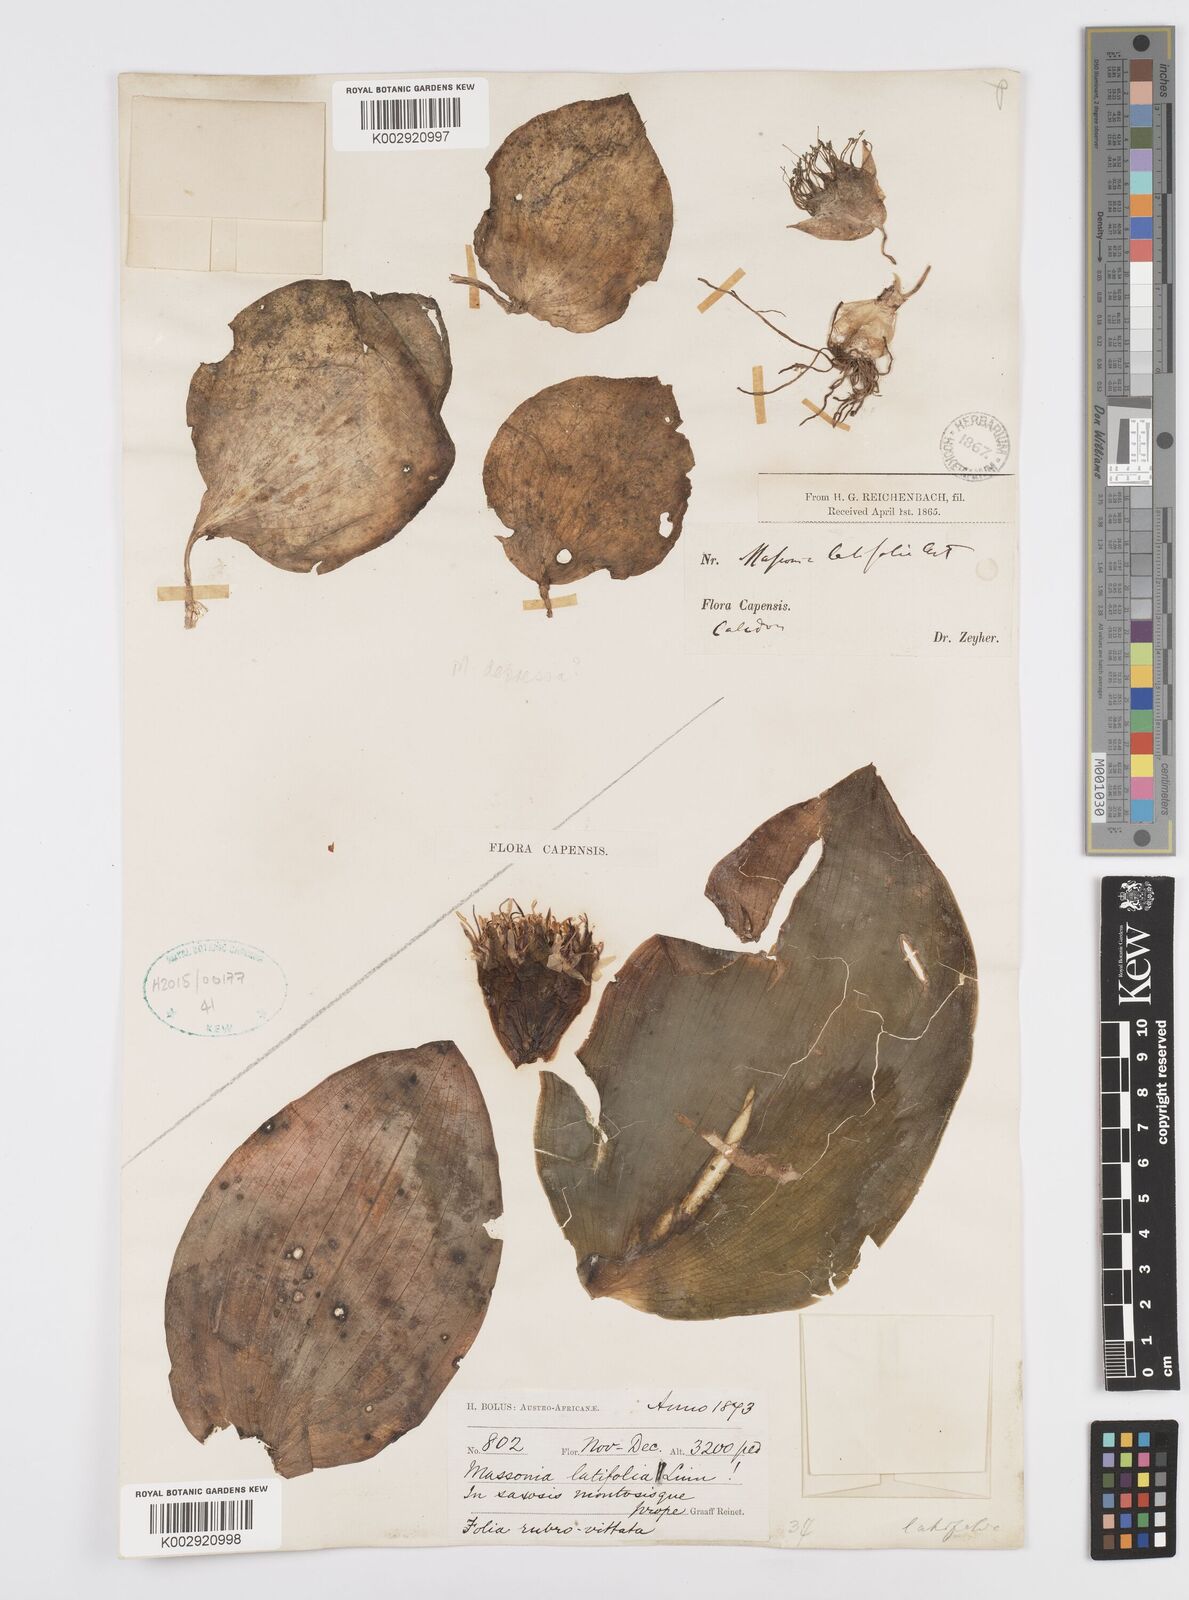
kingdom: Plantae
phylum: Tracheophyta
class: Liliopsida
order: Asparagales
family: Asparagaceae
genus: Massonia
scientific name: Massonia
